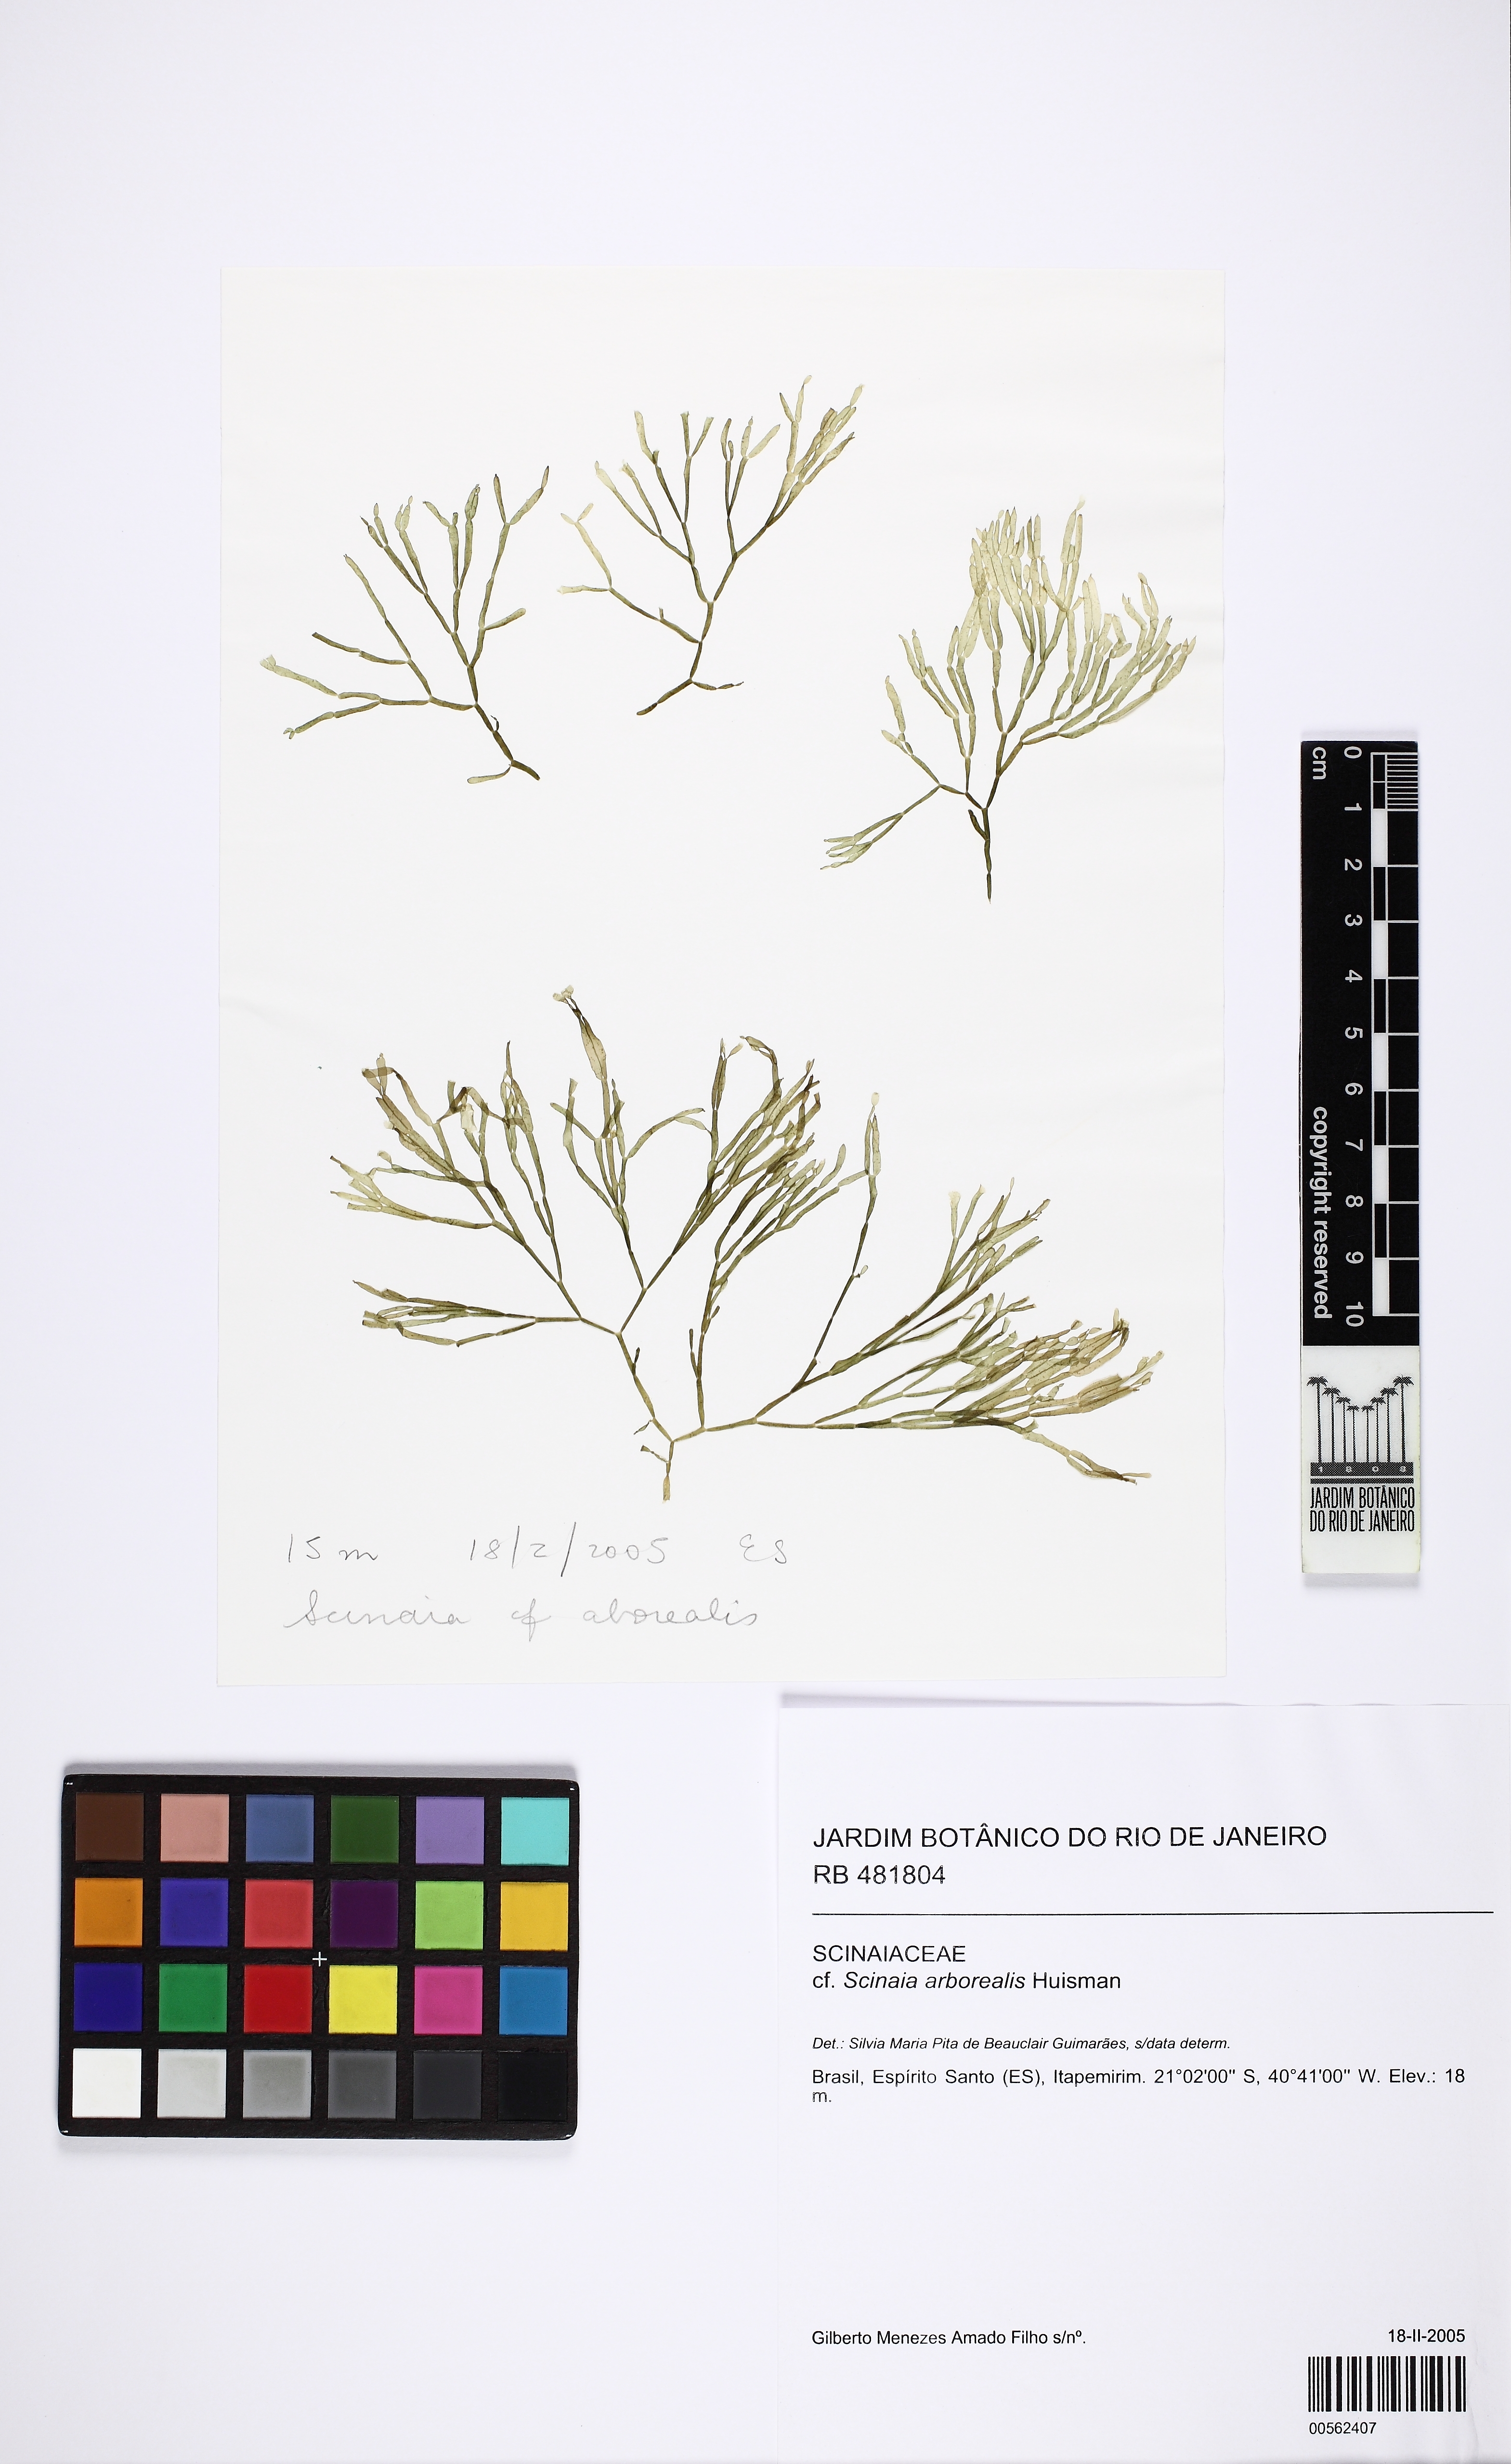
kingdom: Plantae
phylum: Rhodophyta
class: Florideophyceae
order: Nemaliales
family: Scinaiaceae
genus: Scinaia
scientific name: Scinaia
